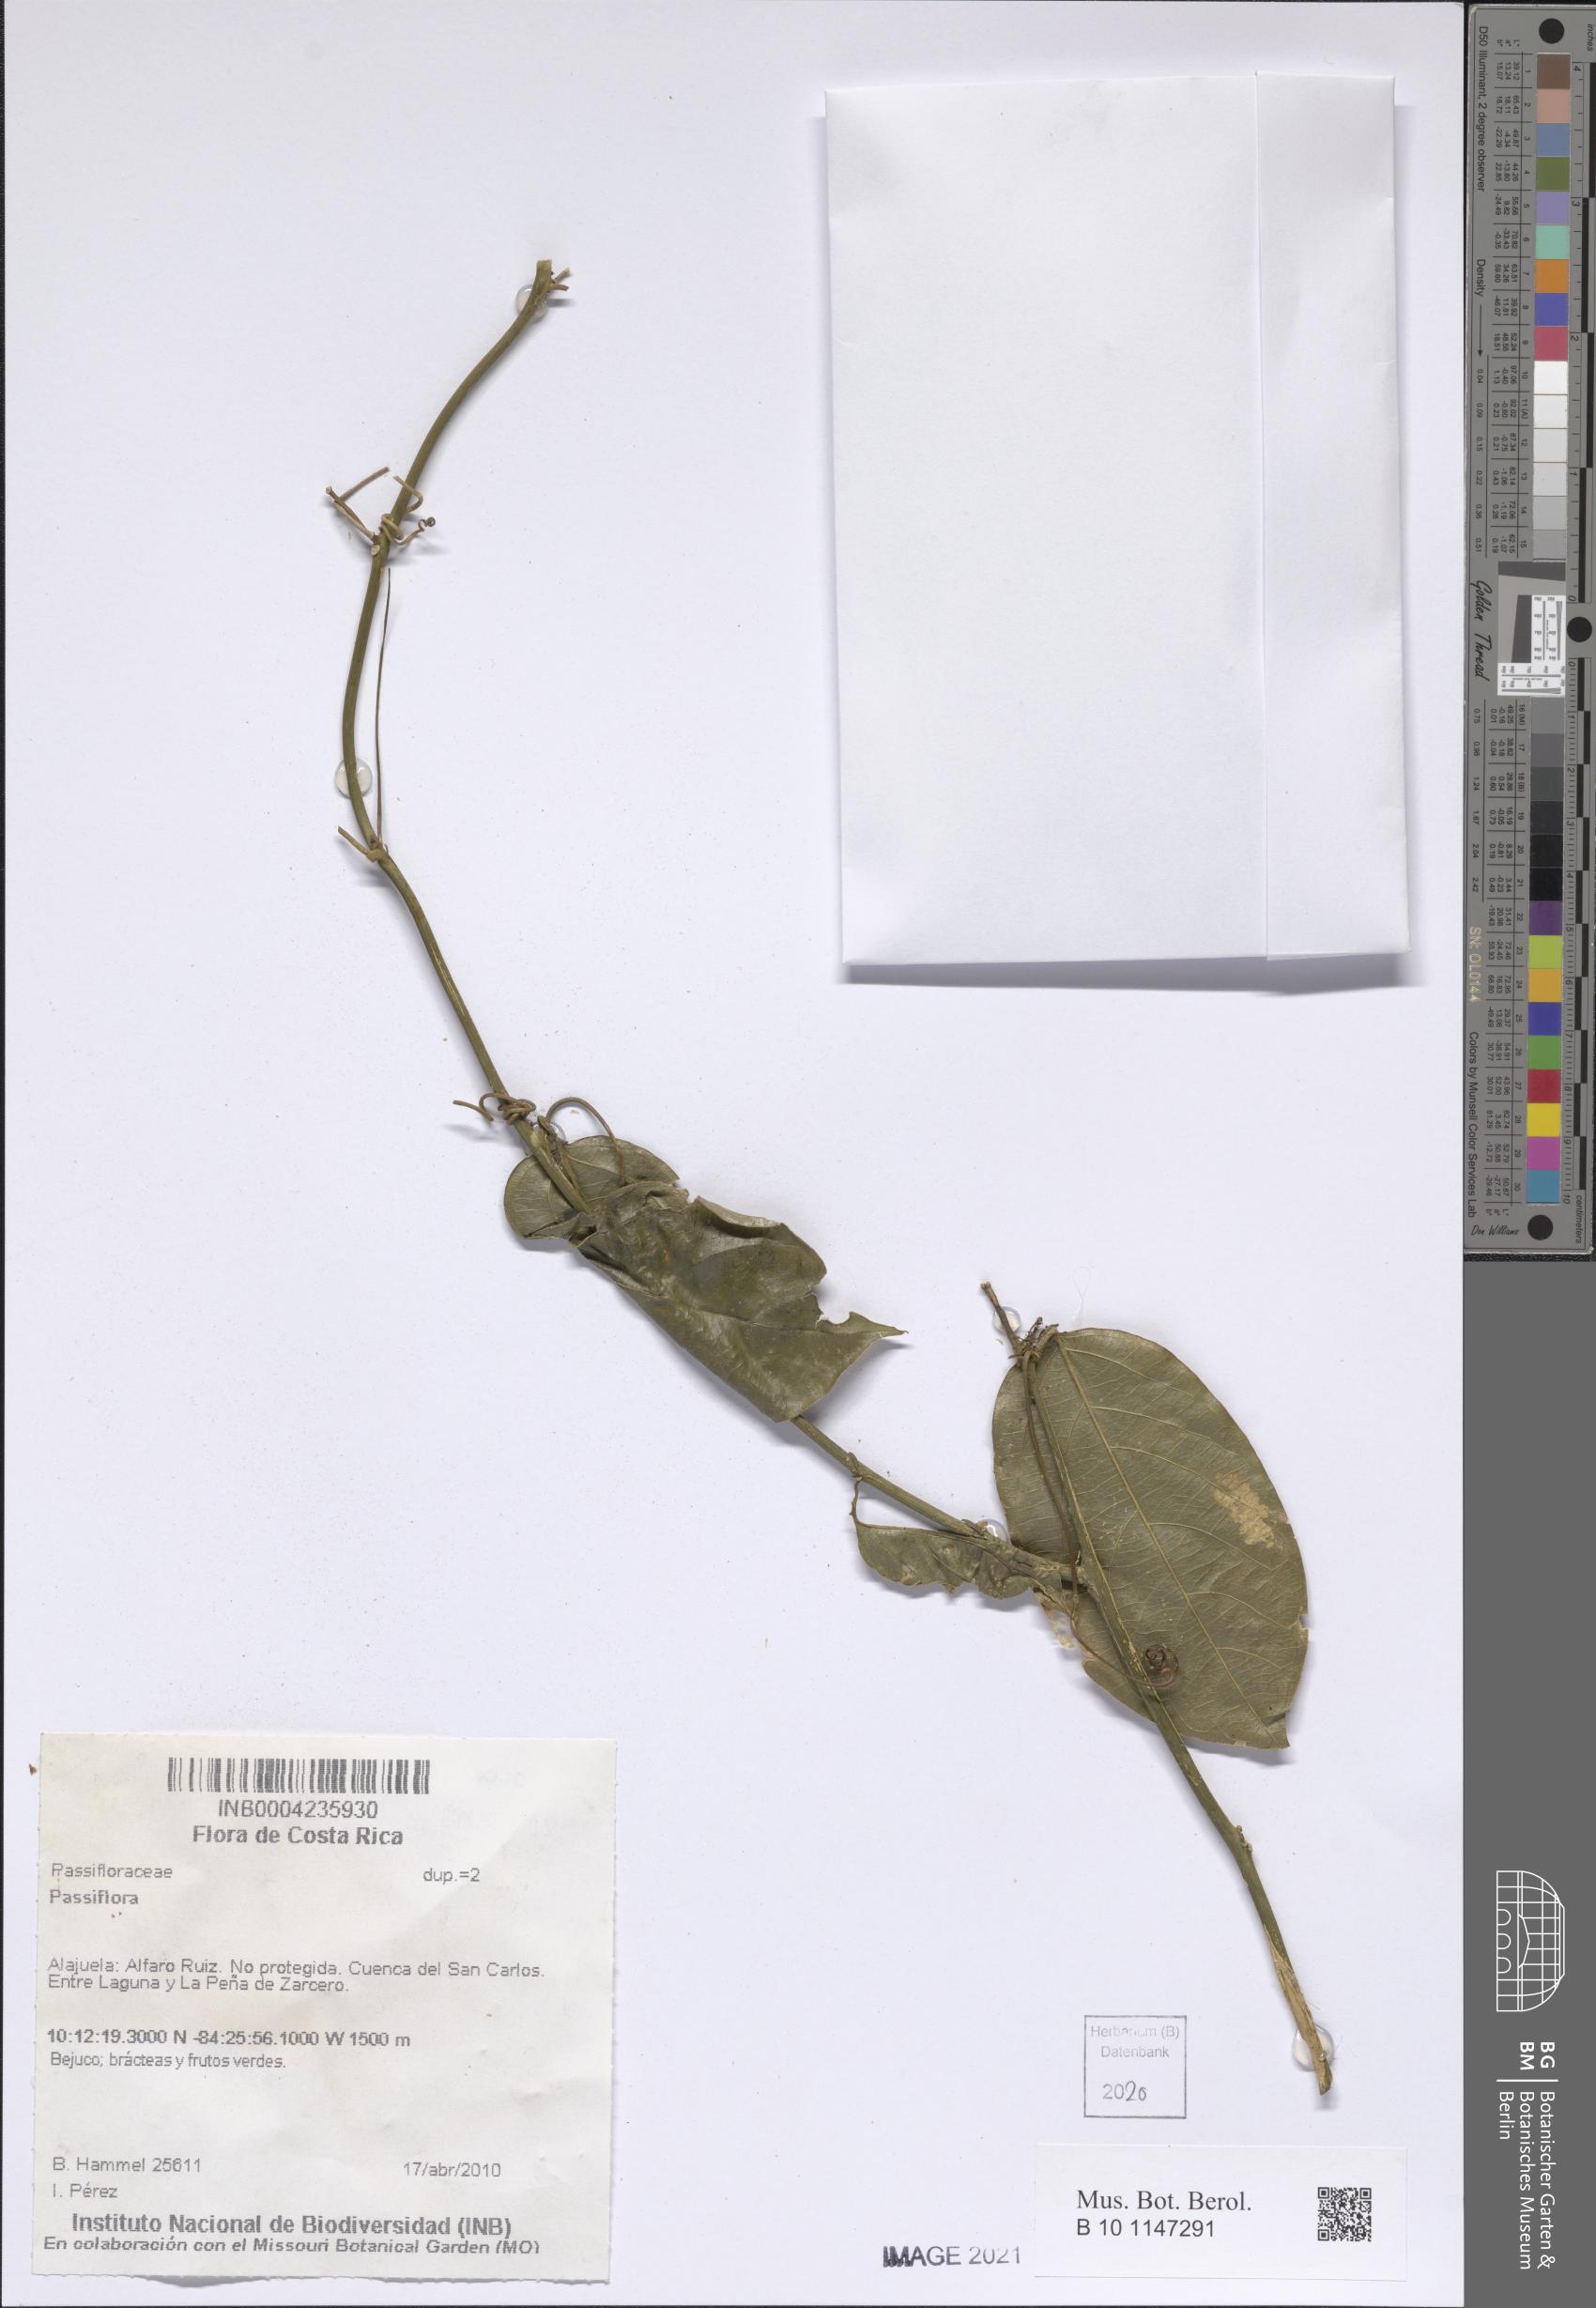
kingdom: Plantae
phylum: Tracheophyta
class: Magnoliopsida
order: Malpighiales
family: Passifloraceae
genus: Passiflora
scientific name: Passiflora
